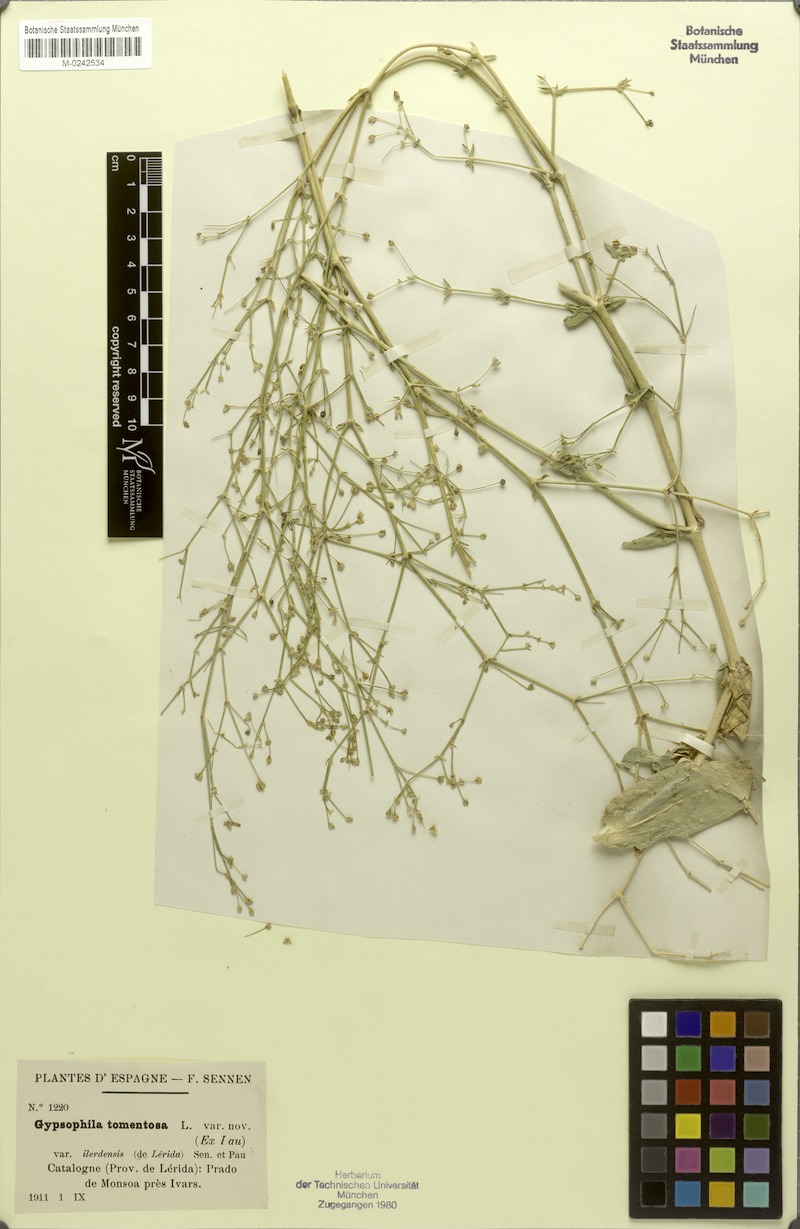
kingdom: Plantae
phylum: Tracheophyta
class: Magnoliopsida
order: Caryophyllales
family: Caryophyllaceae
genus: Gypsophila
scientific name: Gypsophila tomentosa
